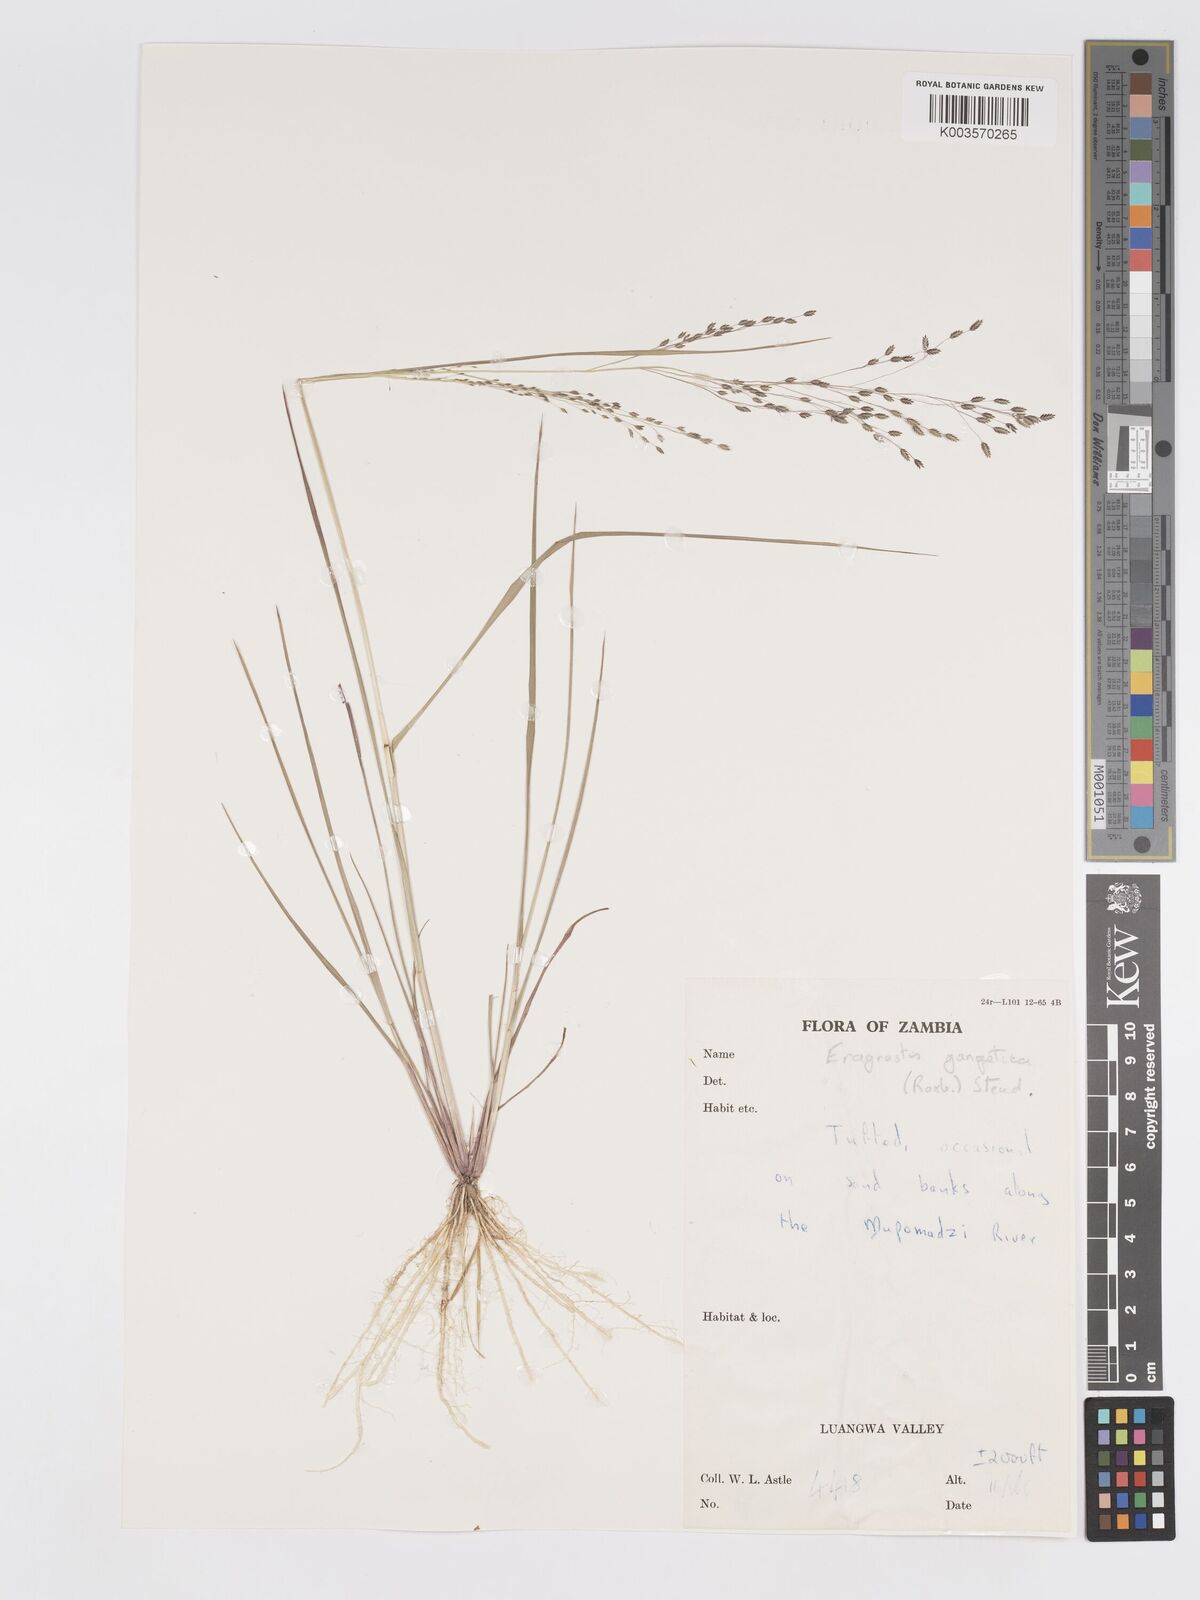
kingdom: Plantae
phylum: Tracheophyta
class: Liliopsida
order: Poales
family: Poaceae
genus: Eragrostis
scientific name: Eragrostis gangetica
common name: Slimflower lovegrass
